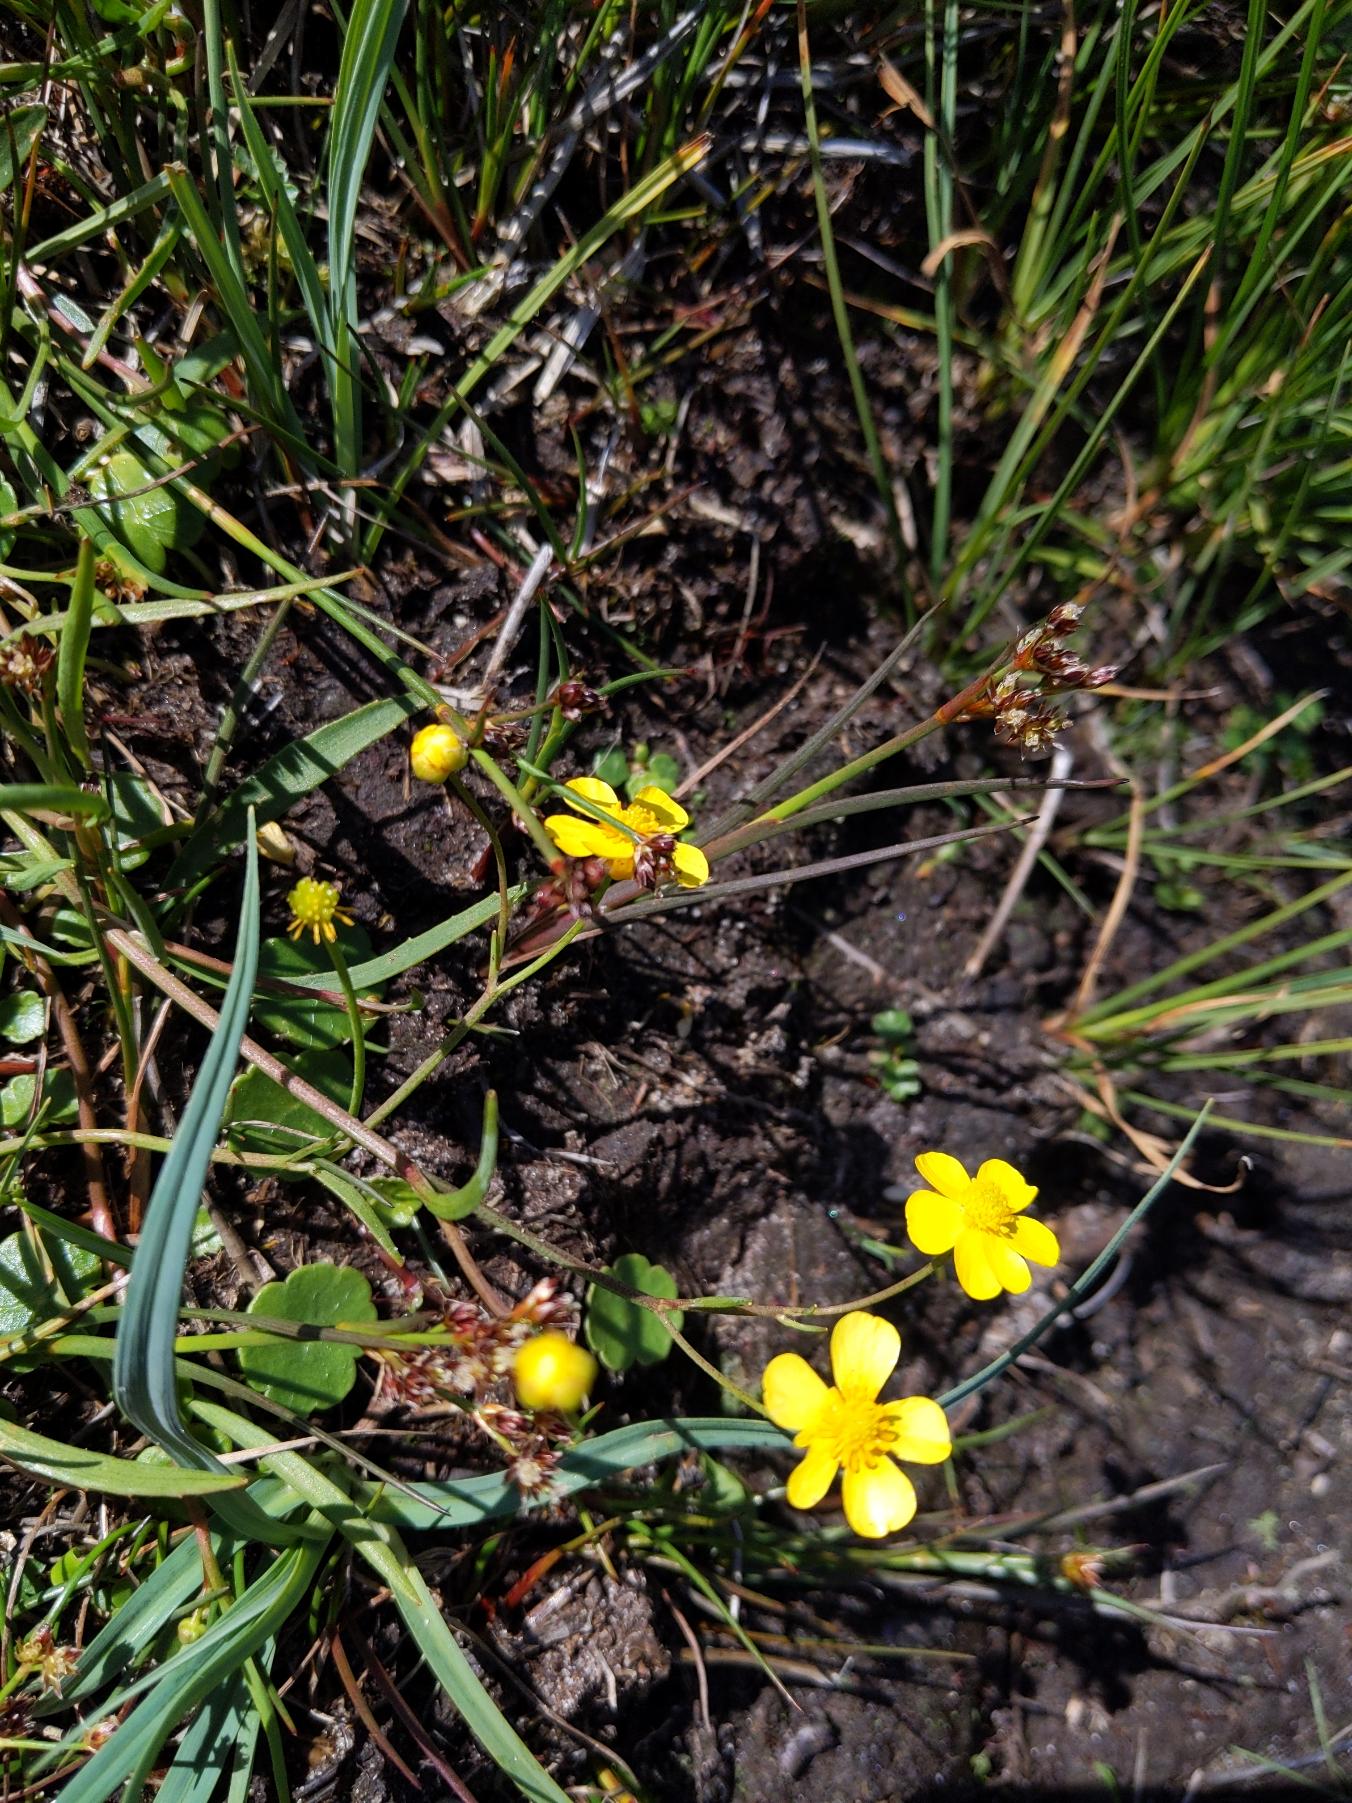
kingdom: Plantae
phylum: Tracheophyta
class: Magnoliopsida
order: Ranunculales
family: Ranunculaceae
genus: Ranunculus
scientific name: Ranunculus flammula
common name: Kær-ranunkel
